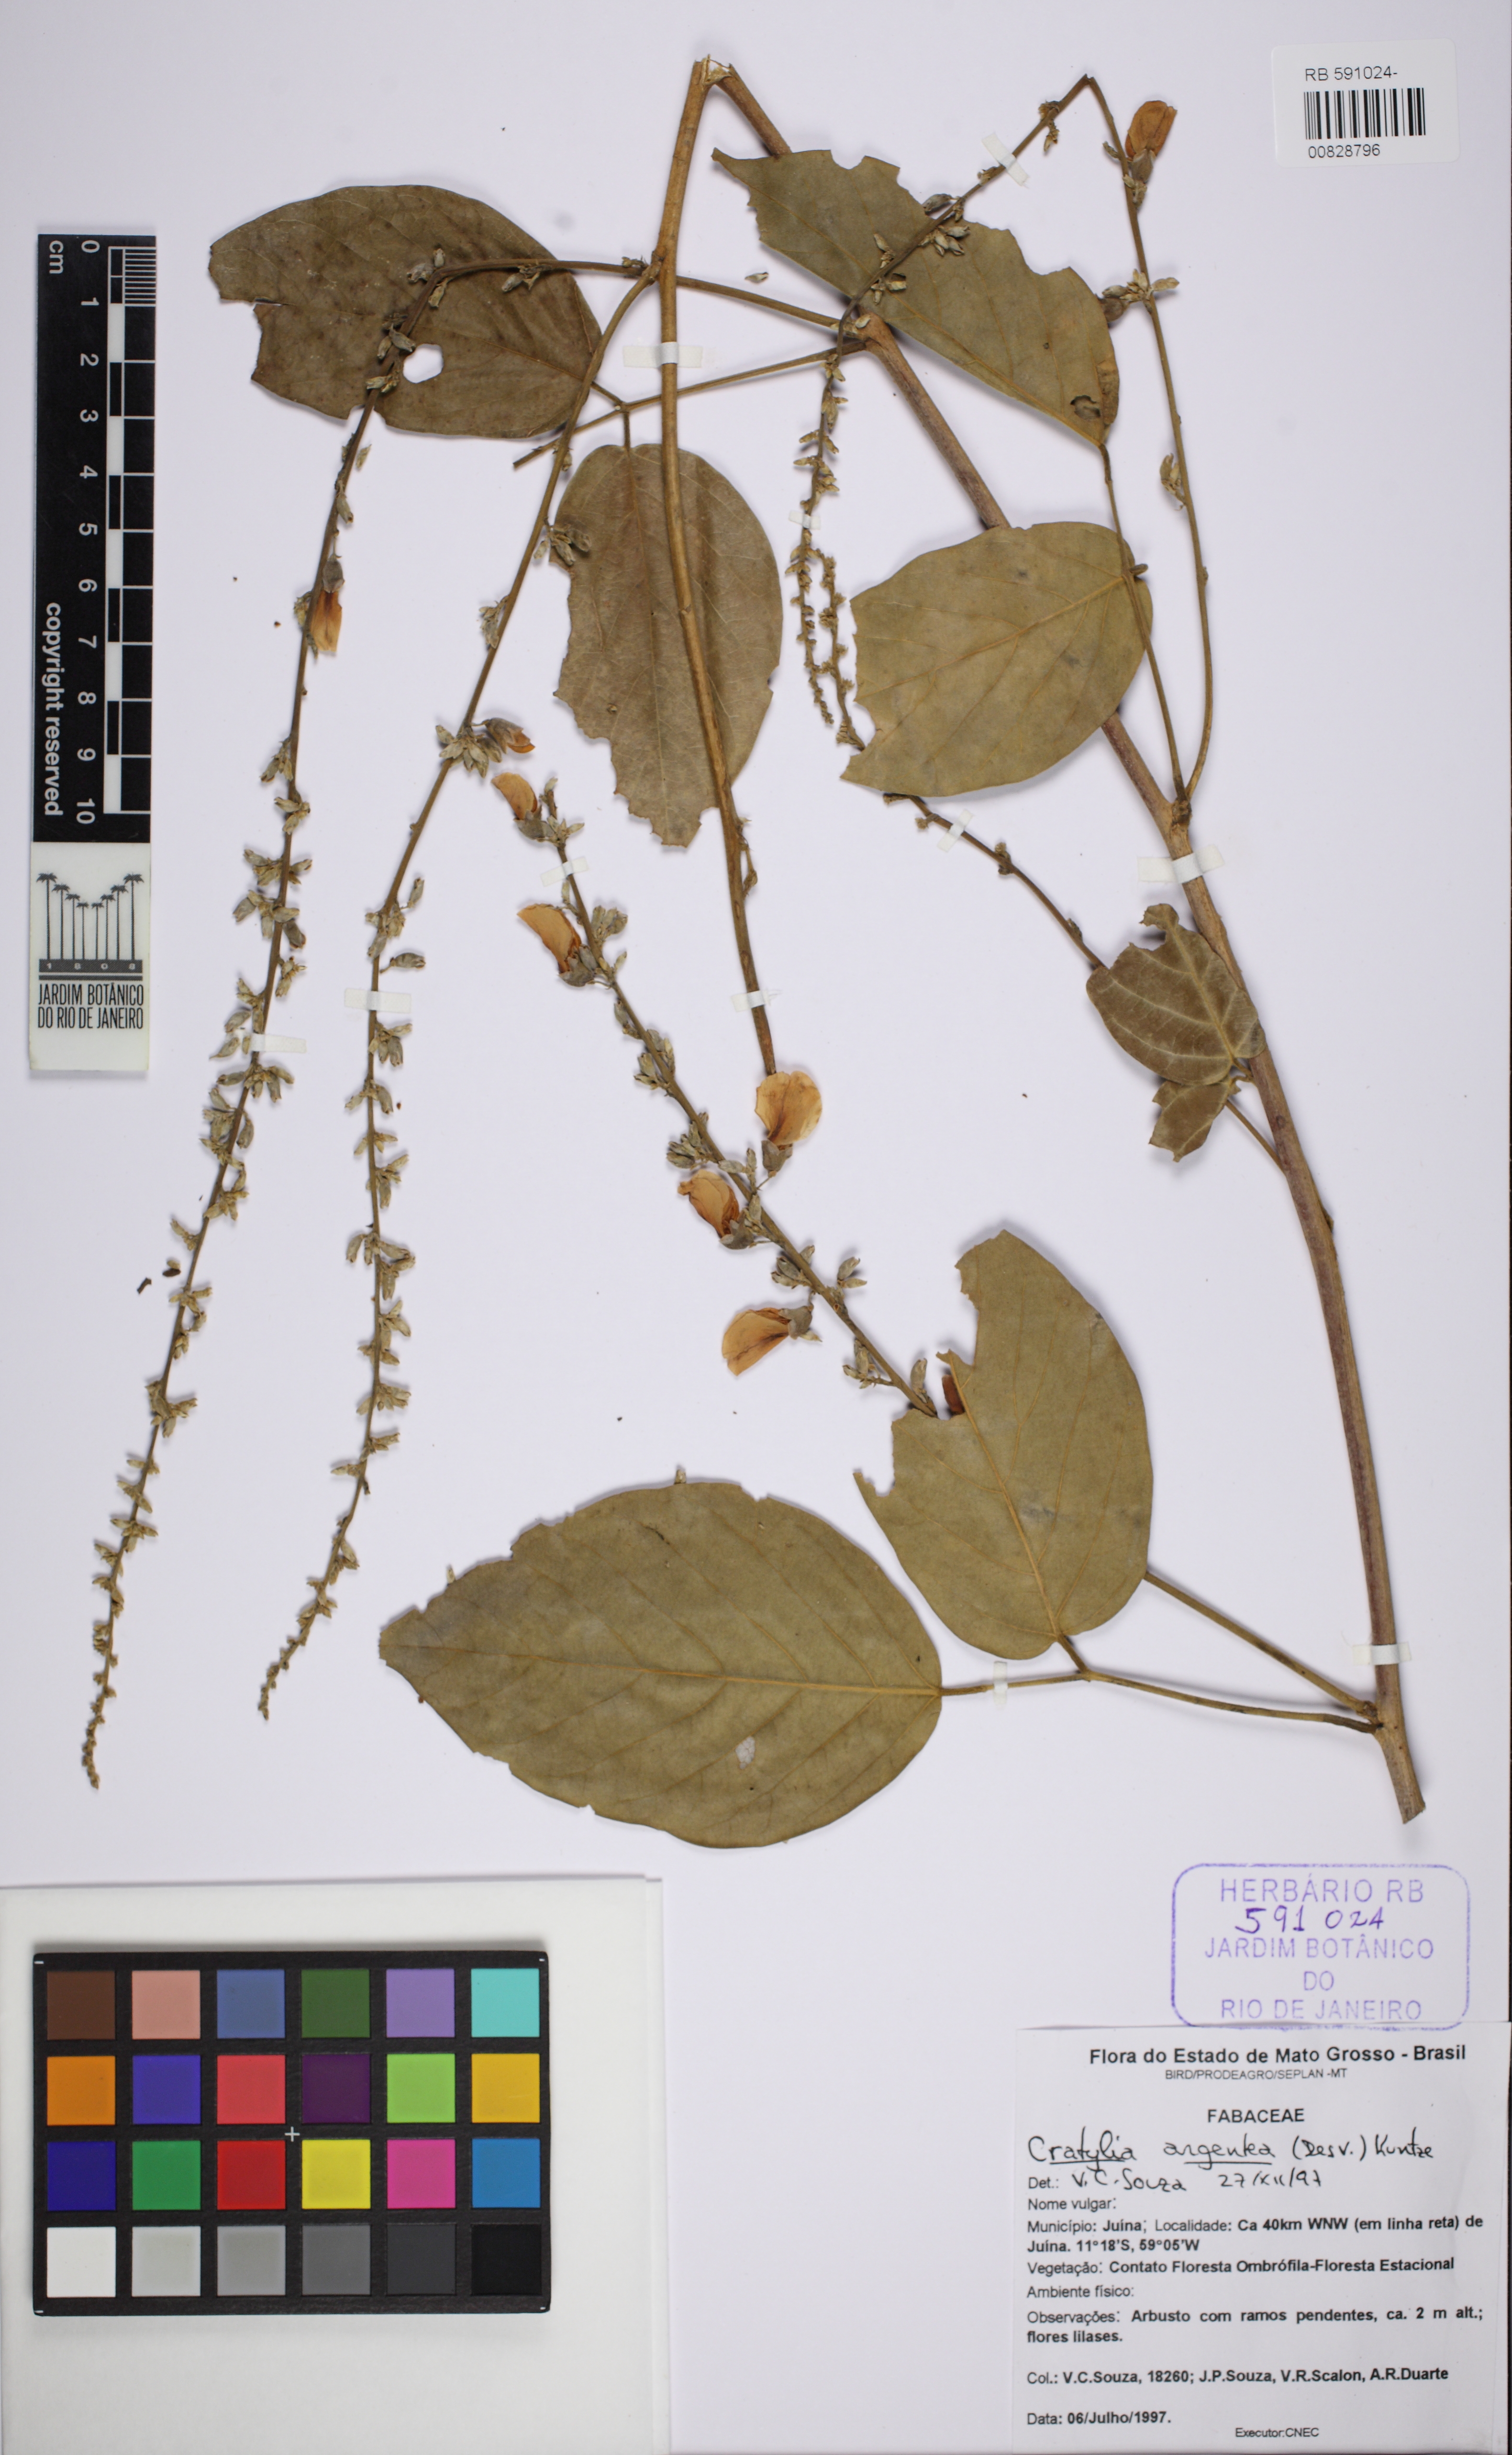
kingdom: Plantae
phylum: Tracheophyta
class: Magnoliopsida
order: Fabales
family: Fabaceae
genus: Cratylia
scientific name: Cratylia argentea
